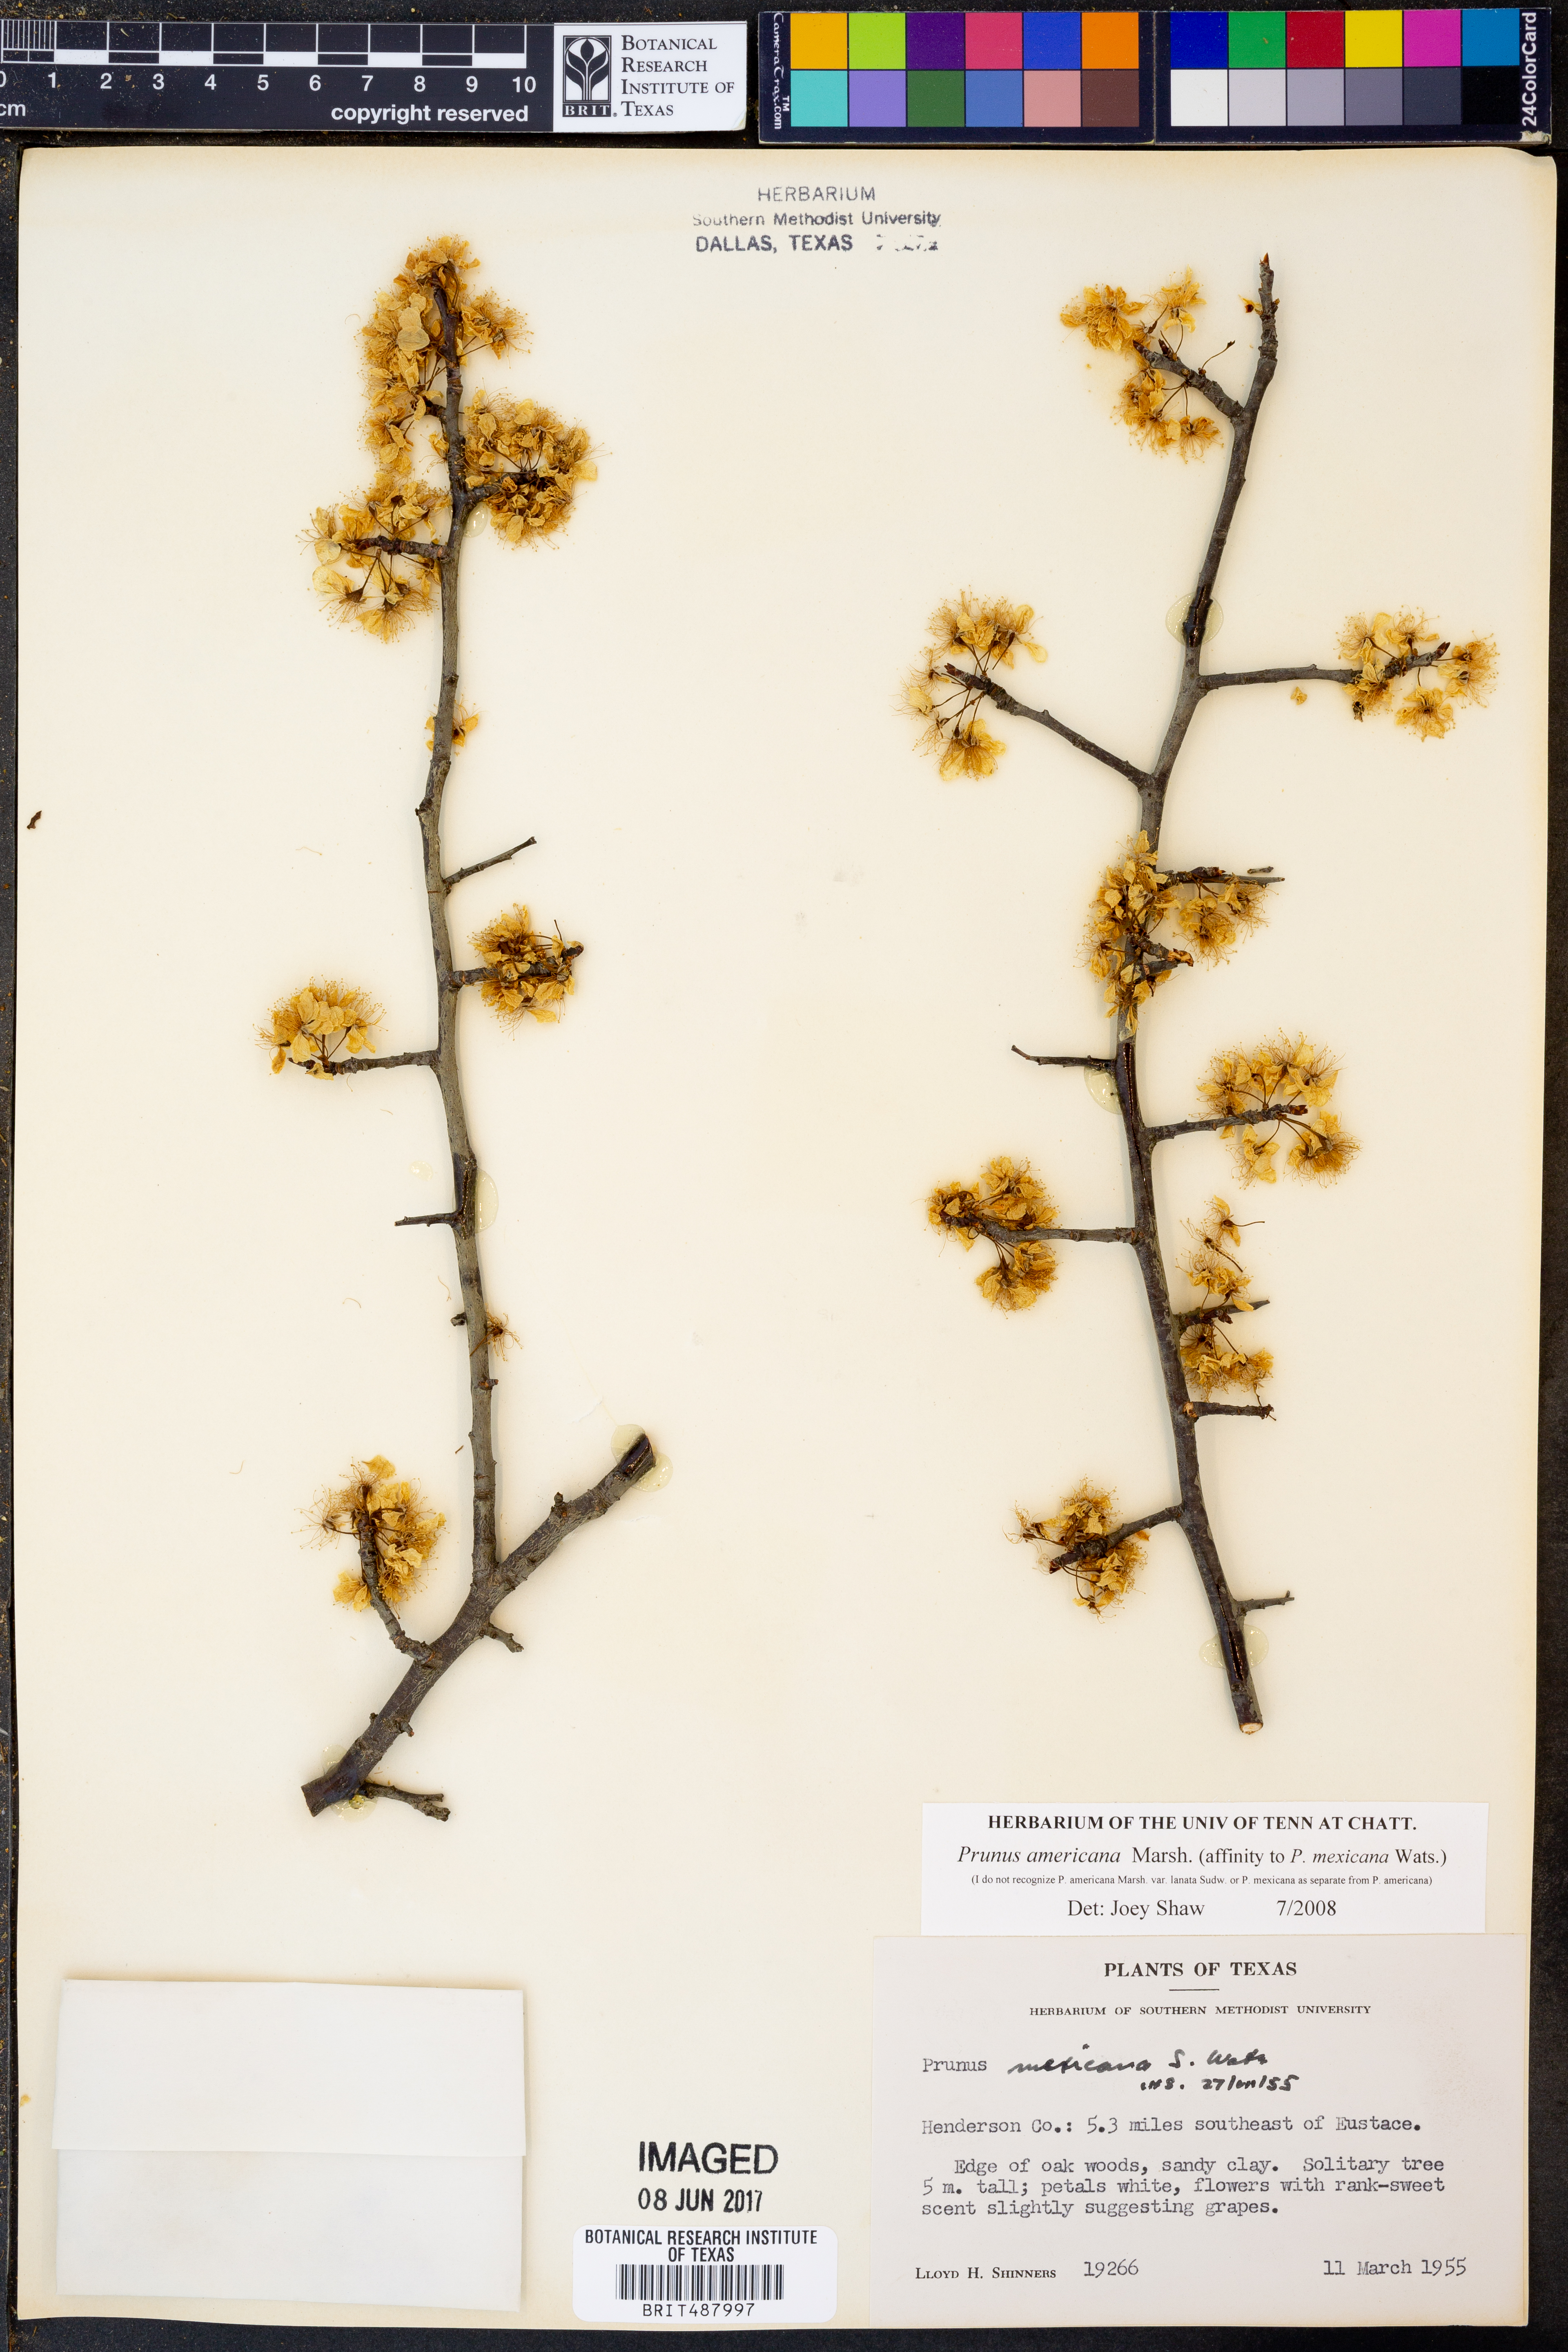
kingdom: Plantae
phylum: Tracheophyta
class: Magnoliopsida
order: Rosales
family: Rosaceae
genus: Prunus
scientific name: Prunus americana
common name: American plum
